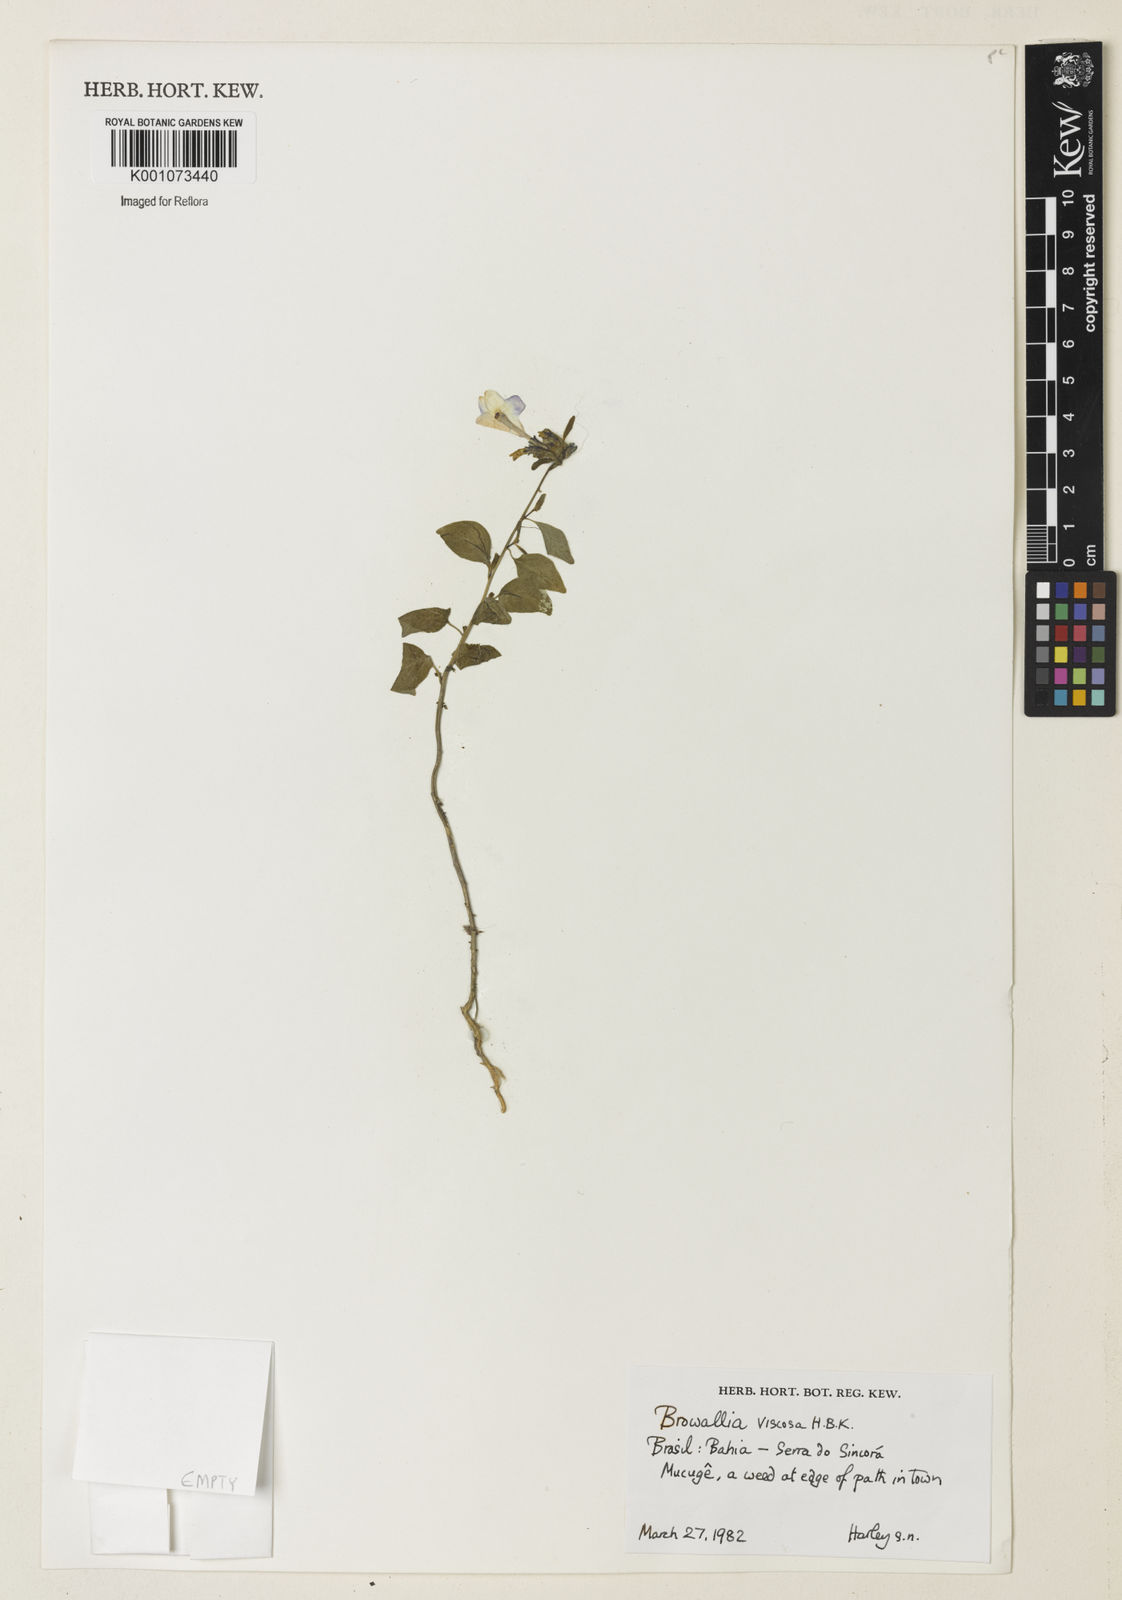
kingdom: Plantae
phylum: Tracheophyta
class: Magnoliopsida
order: Solanales
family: Solanaceae
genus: Browallia
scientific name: Browallia americana
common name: Jamaican forget-me-not
